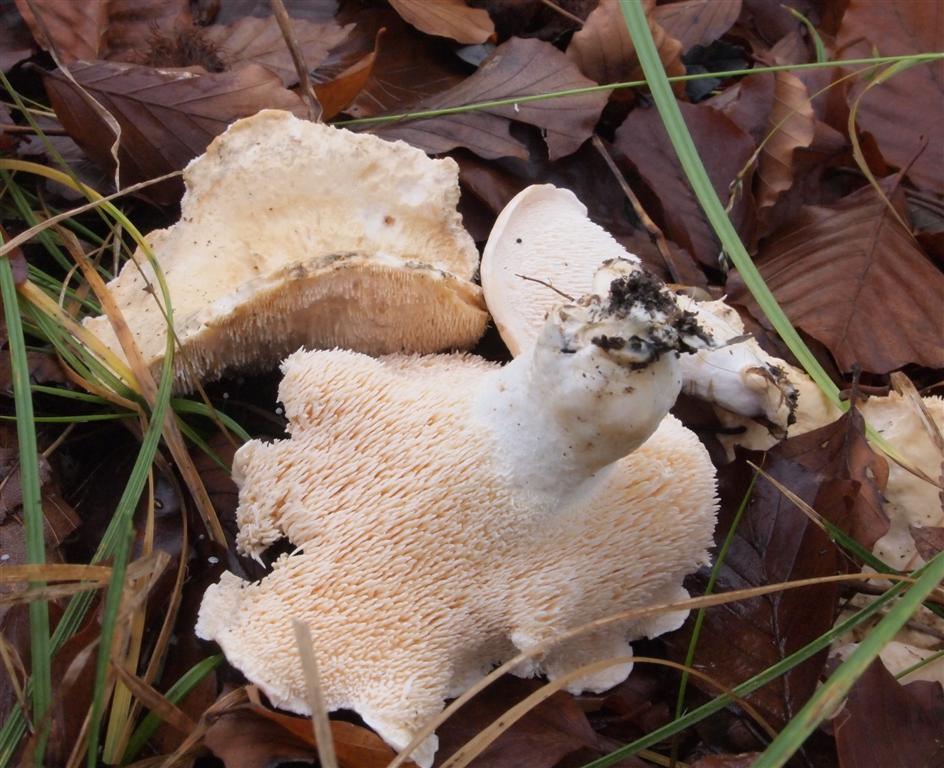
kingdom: Fungi
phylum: Basidiomycota
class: Agaricomycetes
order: Cantharellales
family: Hydnaceae
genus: Hydnum
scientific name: Hydnum repandum
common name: almindelig pigsvamp
